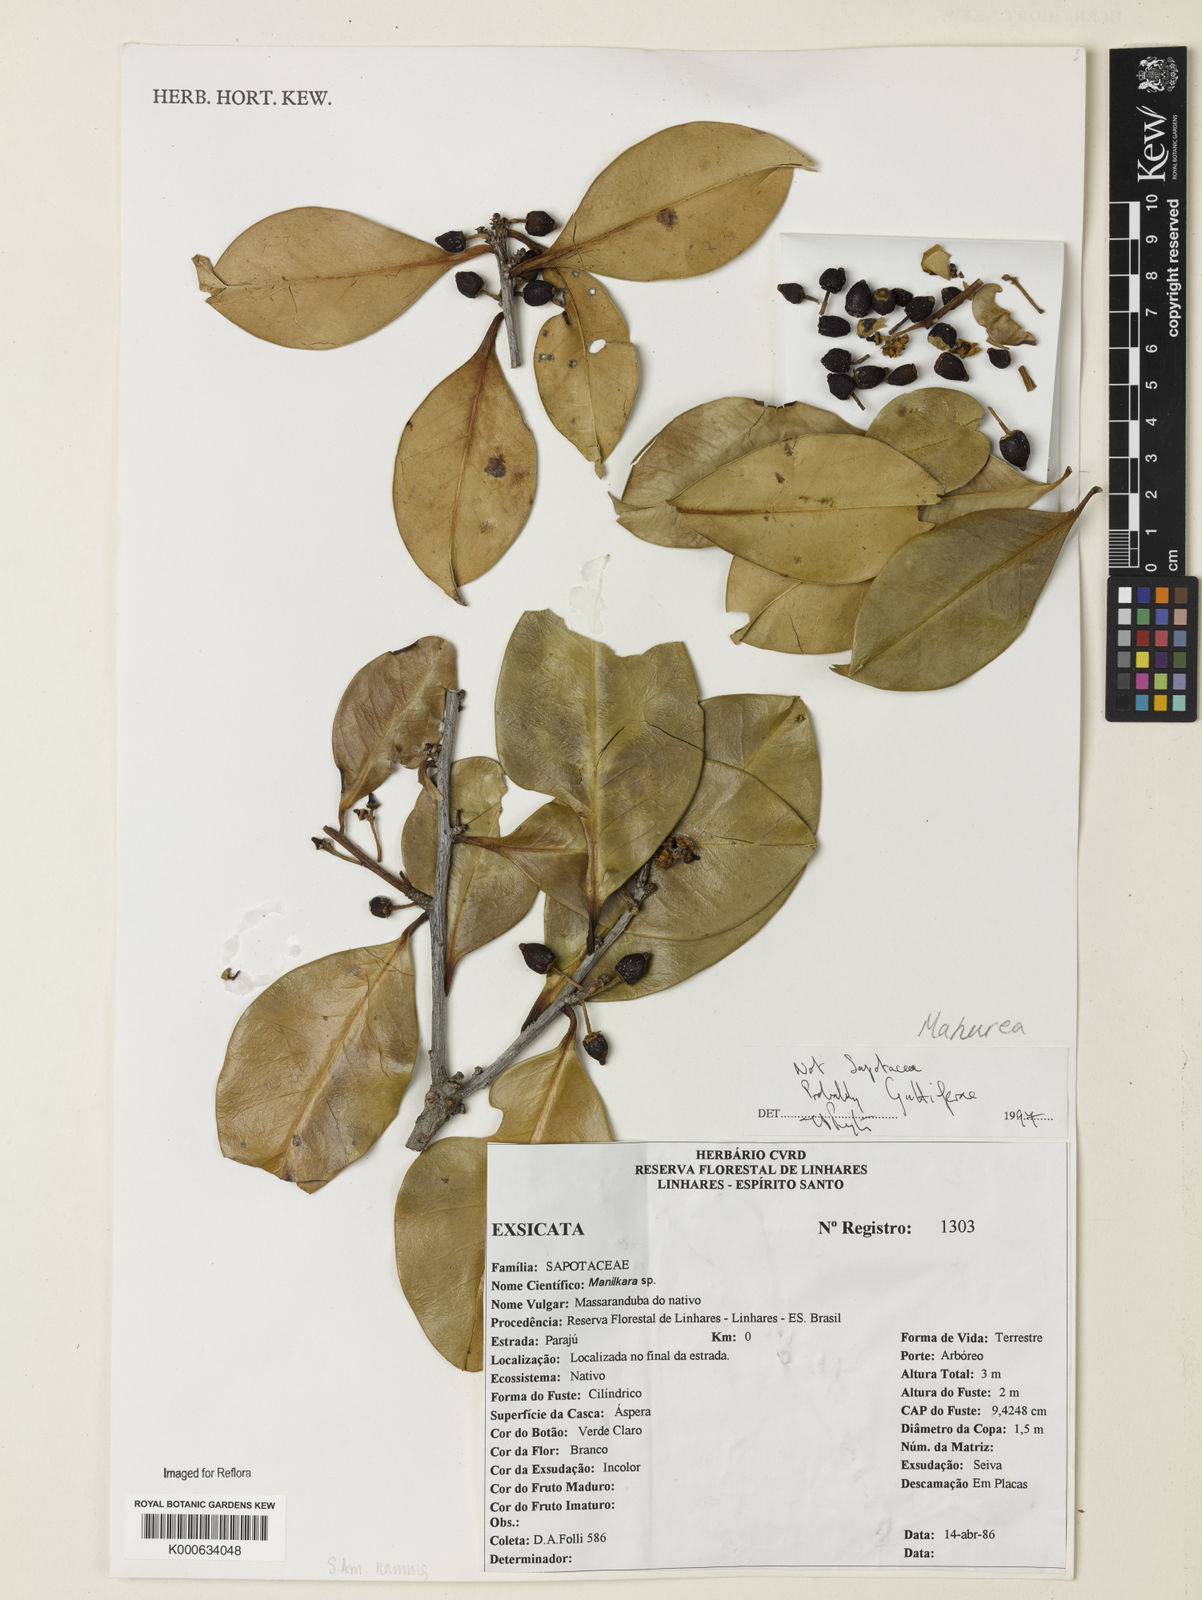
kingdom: Plantae
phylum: Tracheophyta
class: Magnoliopsida
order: Malpighiales
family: Calophyllaceae
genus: Mahurea
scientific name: Mahurea
